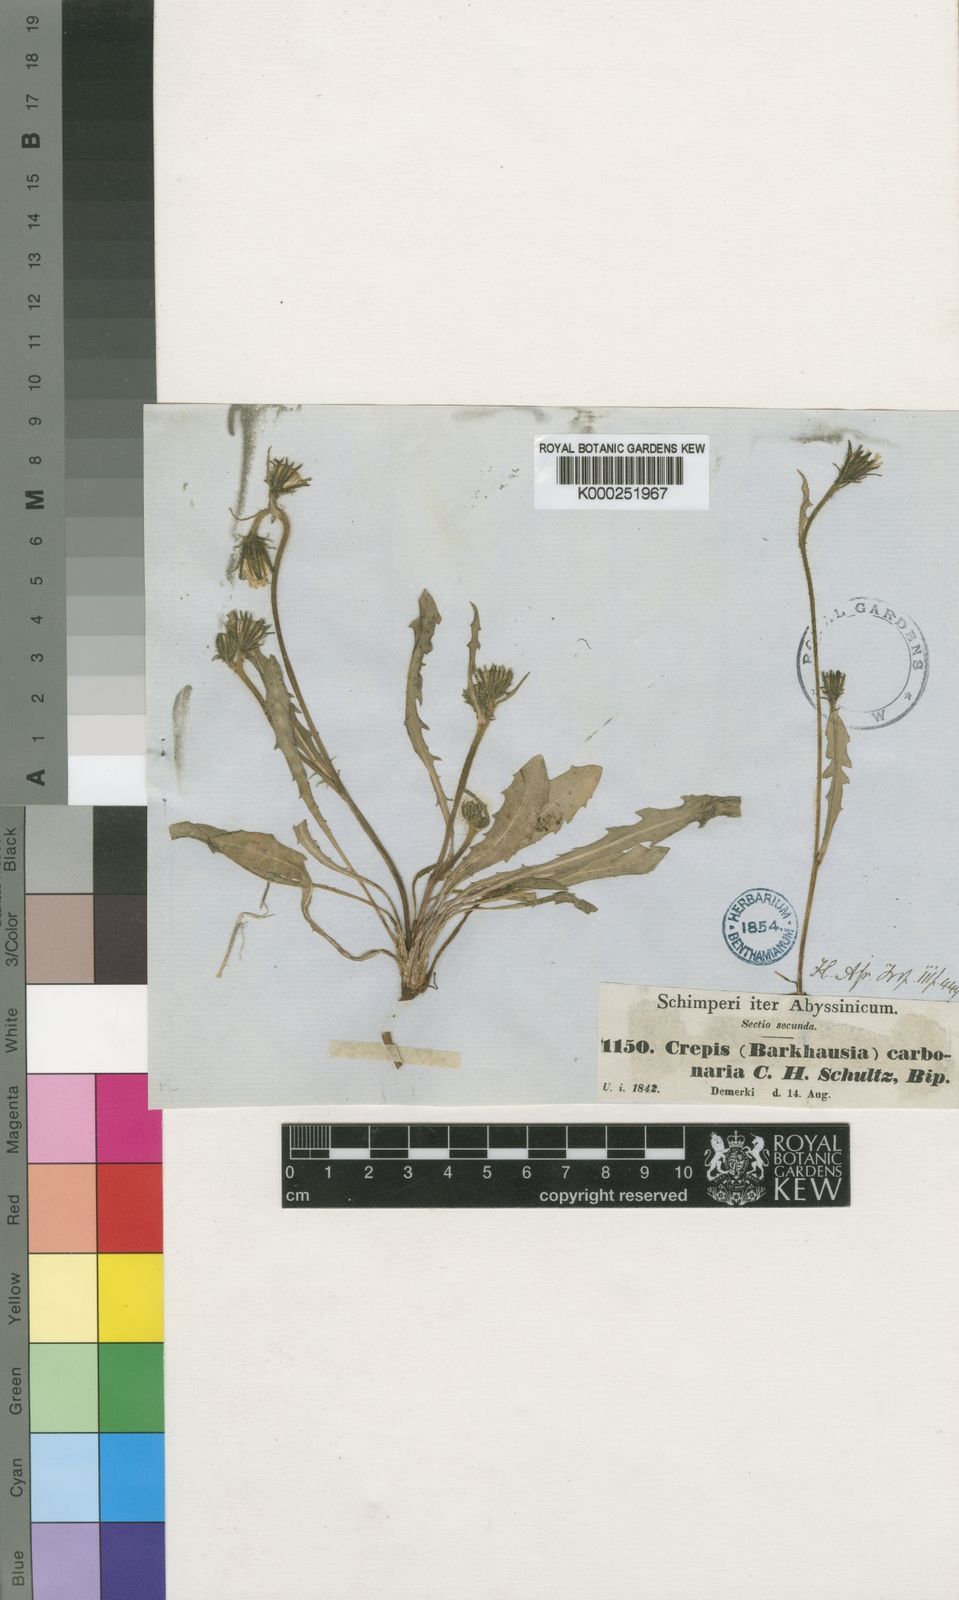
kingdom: Plantae
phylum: Tracheophyta
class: Magnoliopsida
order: Asterales
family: Asteraceae
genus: Crepis
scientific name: Crepis carbonaria
